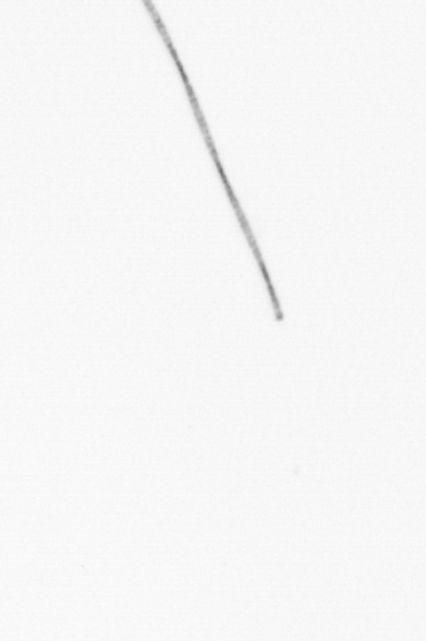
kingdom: Chromista
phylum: Ochrophyta
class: Bacillariophyceae
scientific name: Bacillariophyceae
